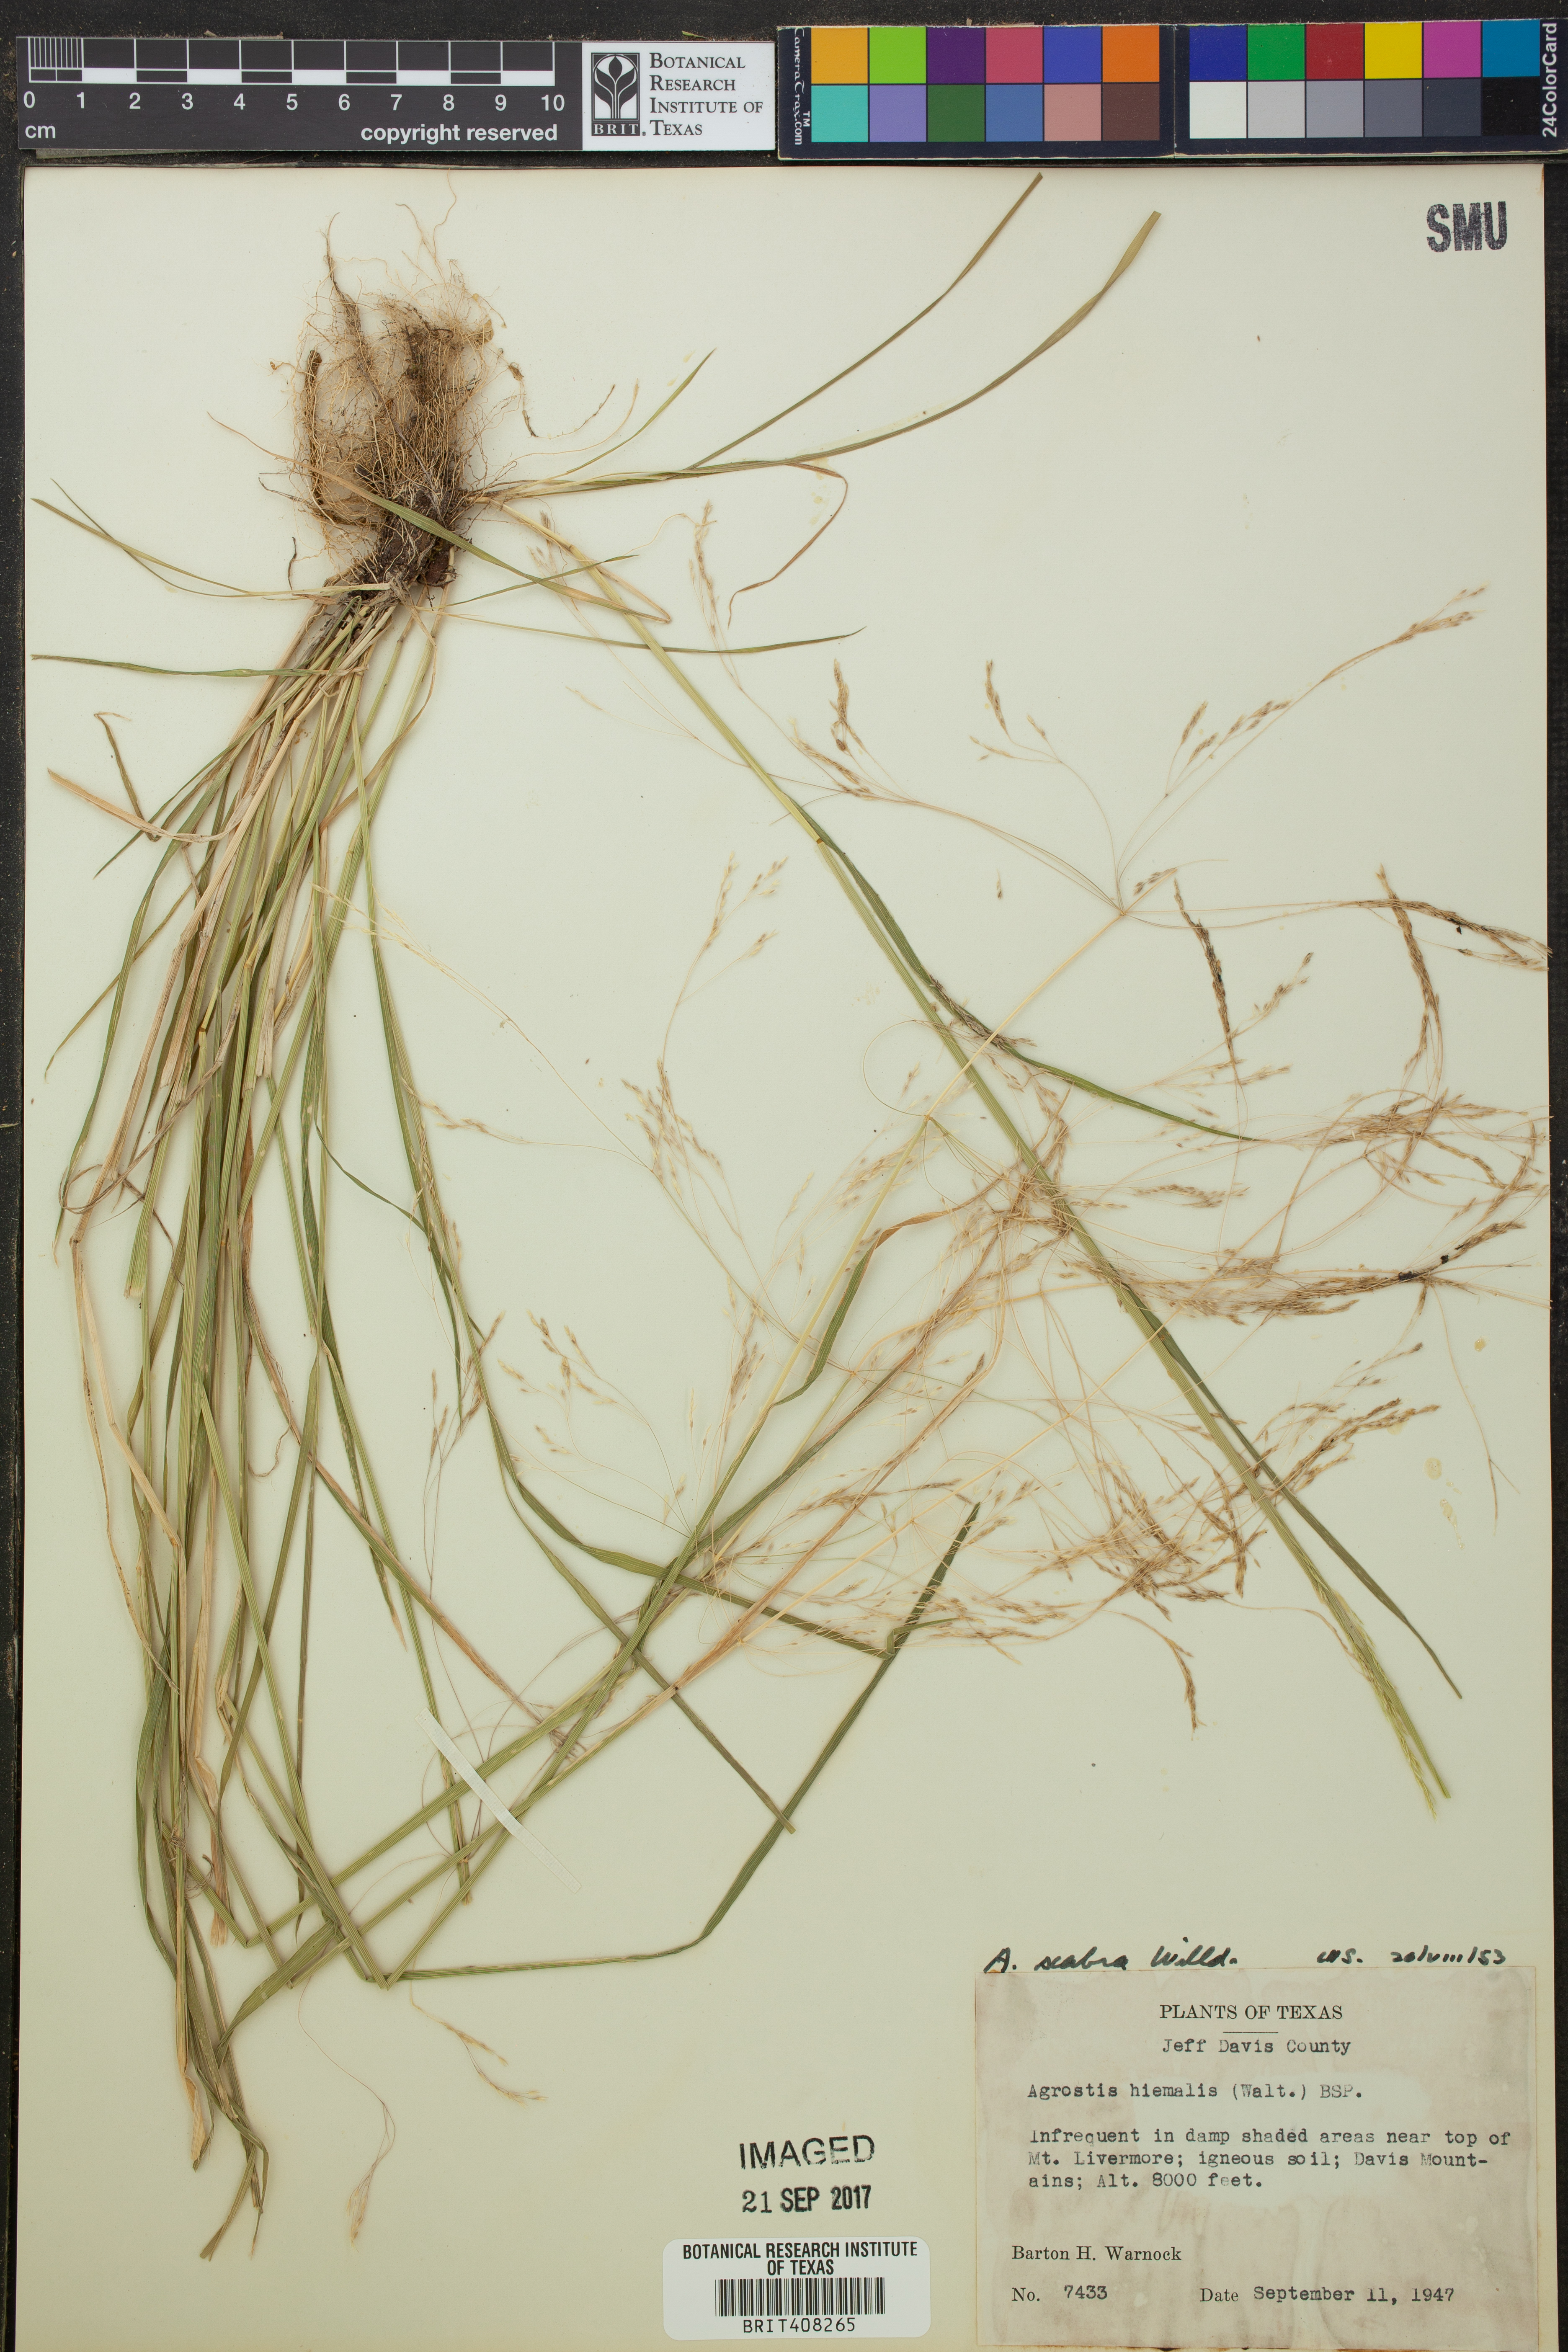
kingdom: Plantae
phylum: Tracheophyta
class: Liliopsida
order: Poales
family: Poaceae
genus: Agrostis
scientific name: Agrostis hyemalis
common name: Small bent
